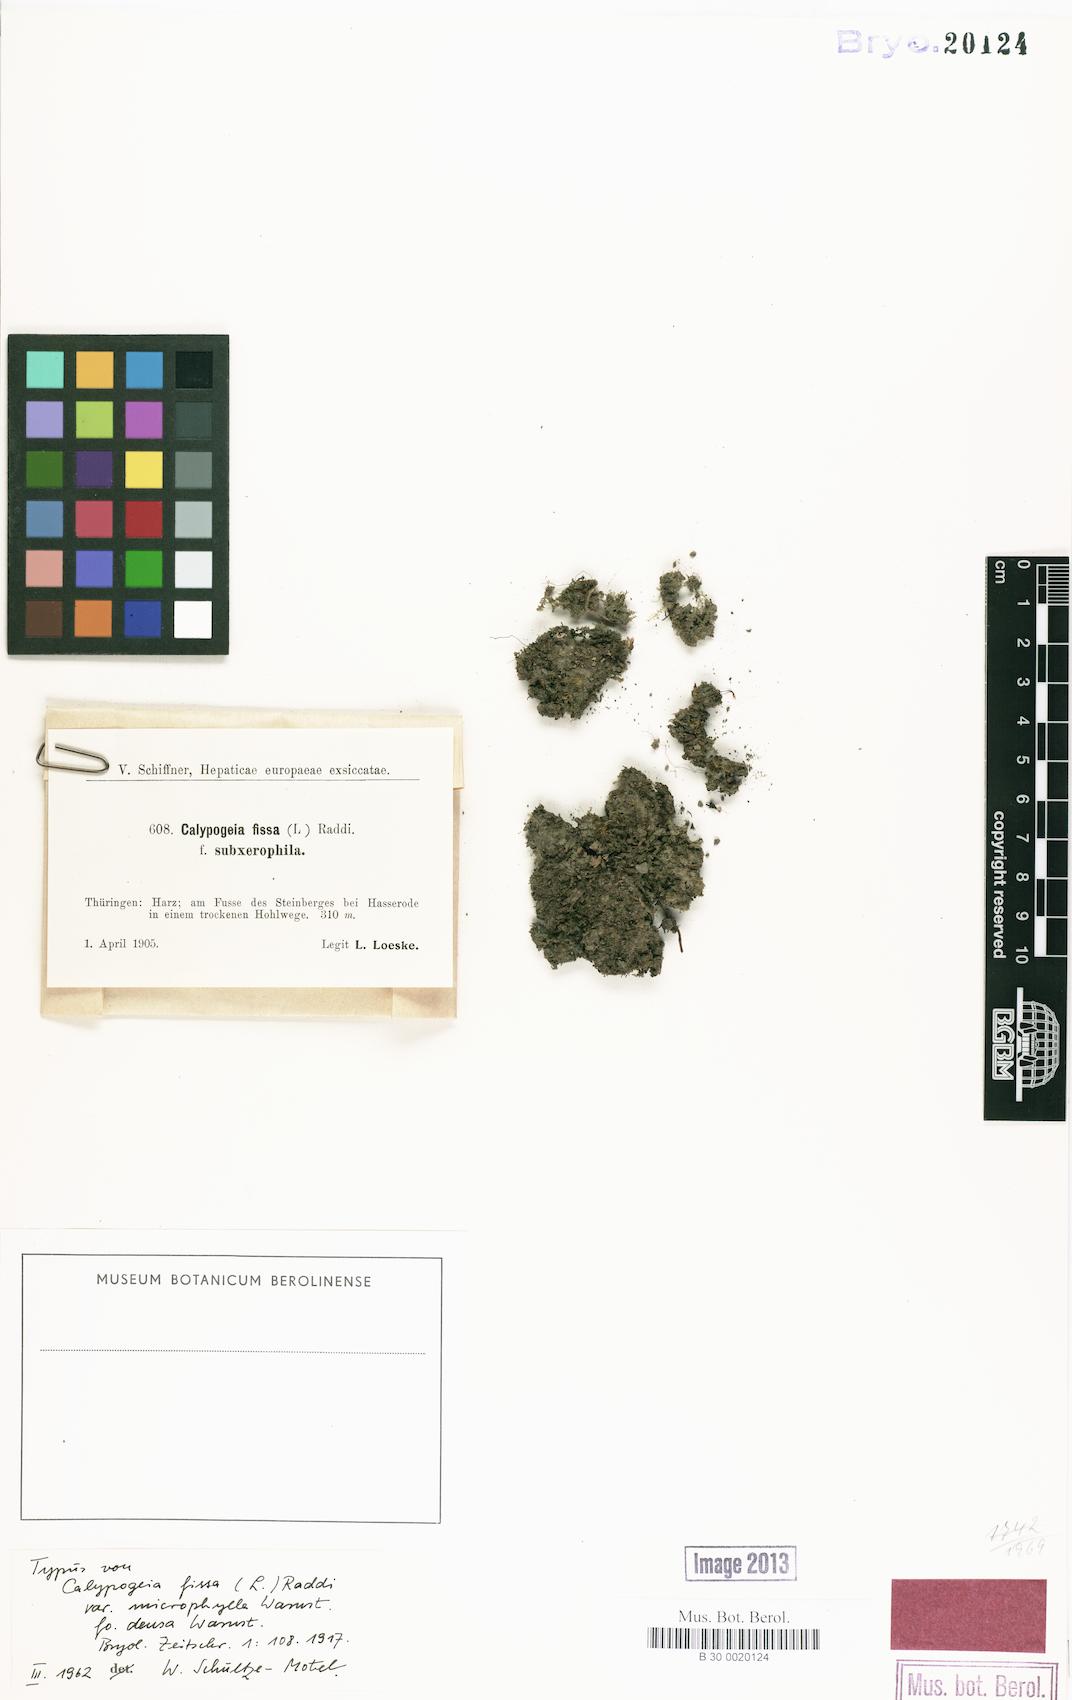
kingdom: Plantae
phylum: Marchantiophyta
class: Jungermanniopsida
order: Jungermanniales
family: Calypogeiaceae
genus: Calypogeia
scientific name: Calypogeia fissa
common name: Common pouchwort
